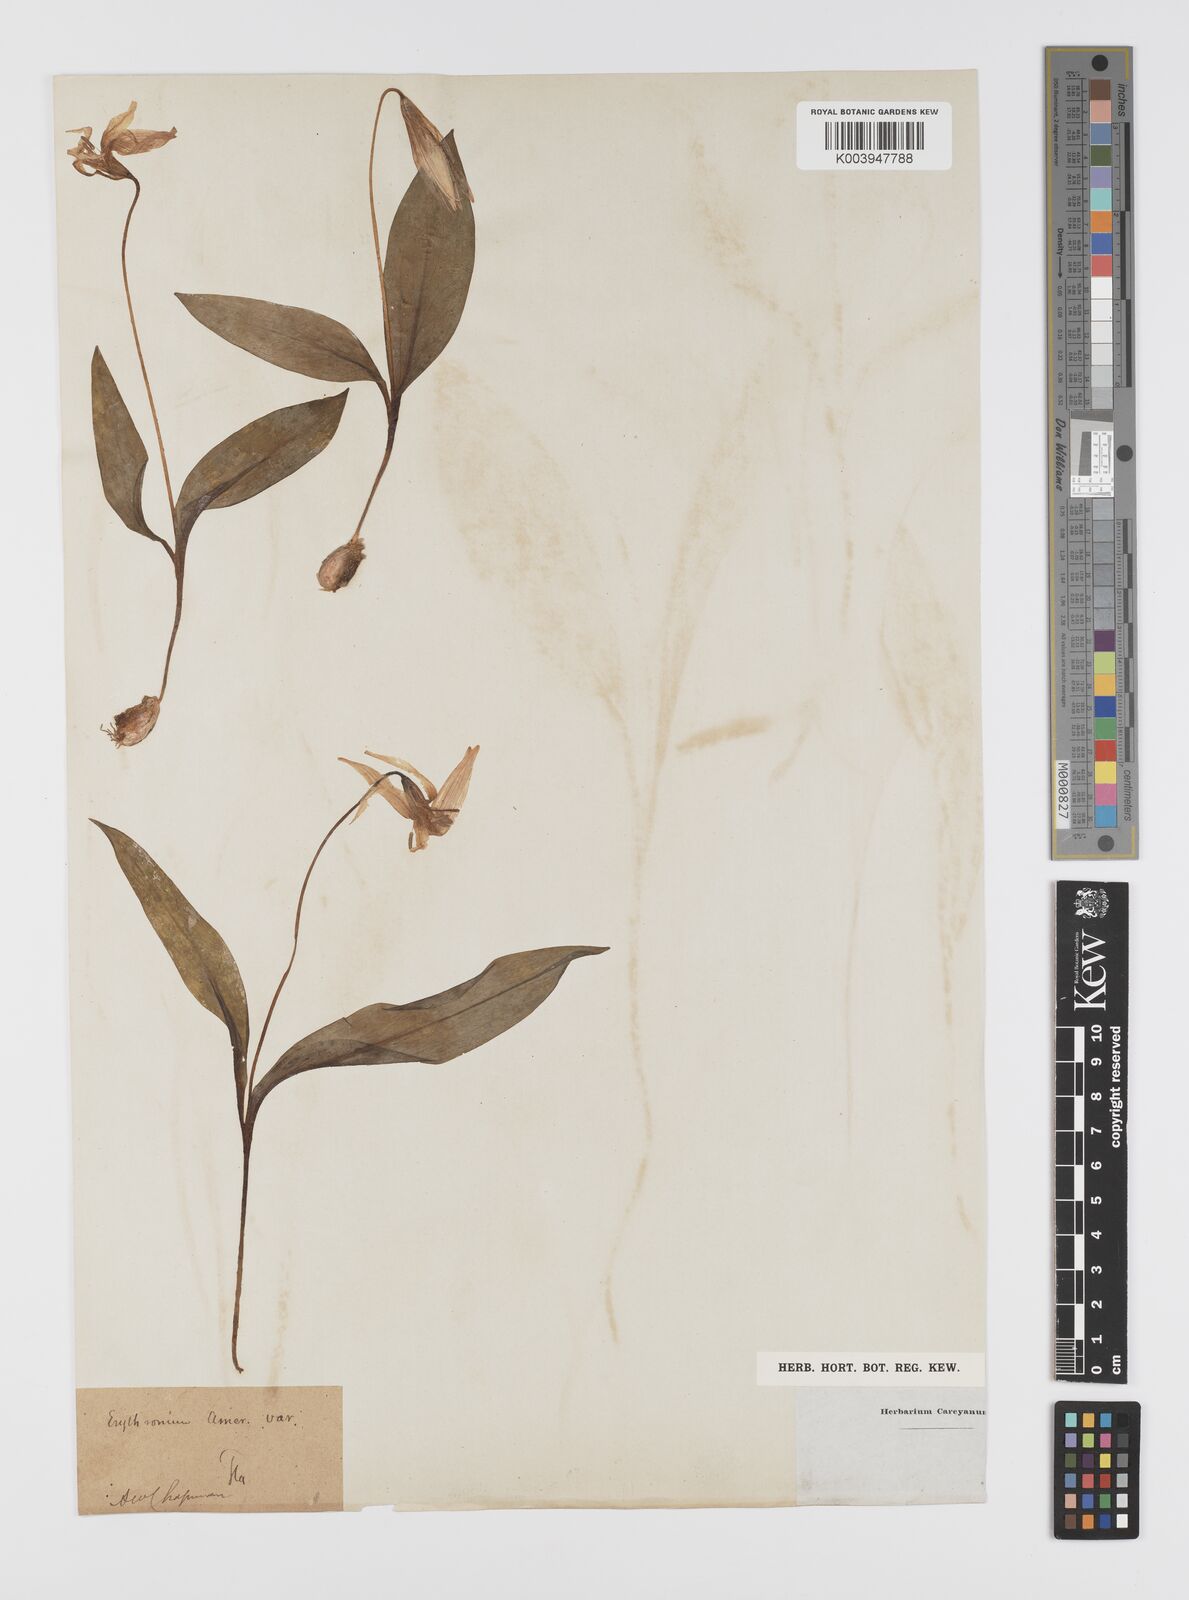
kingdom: Plantae
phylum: Tracheophyta
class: Liliopsida
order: Liliales
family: Liliaceae
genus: Erythronium
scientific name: Erythronium americanum
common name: Yellow adder's-tongue
